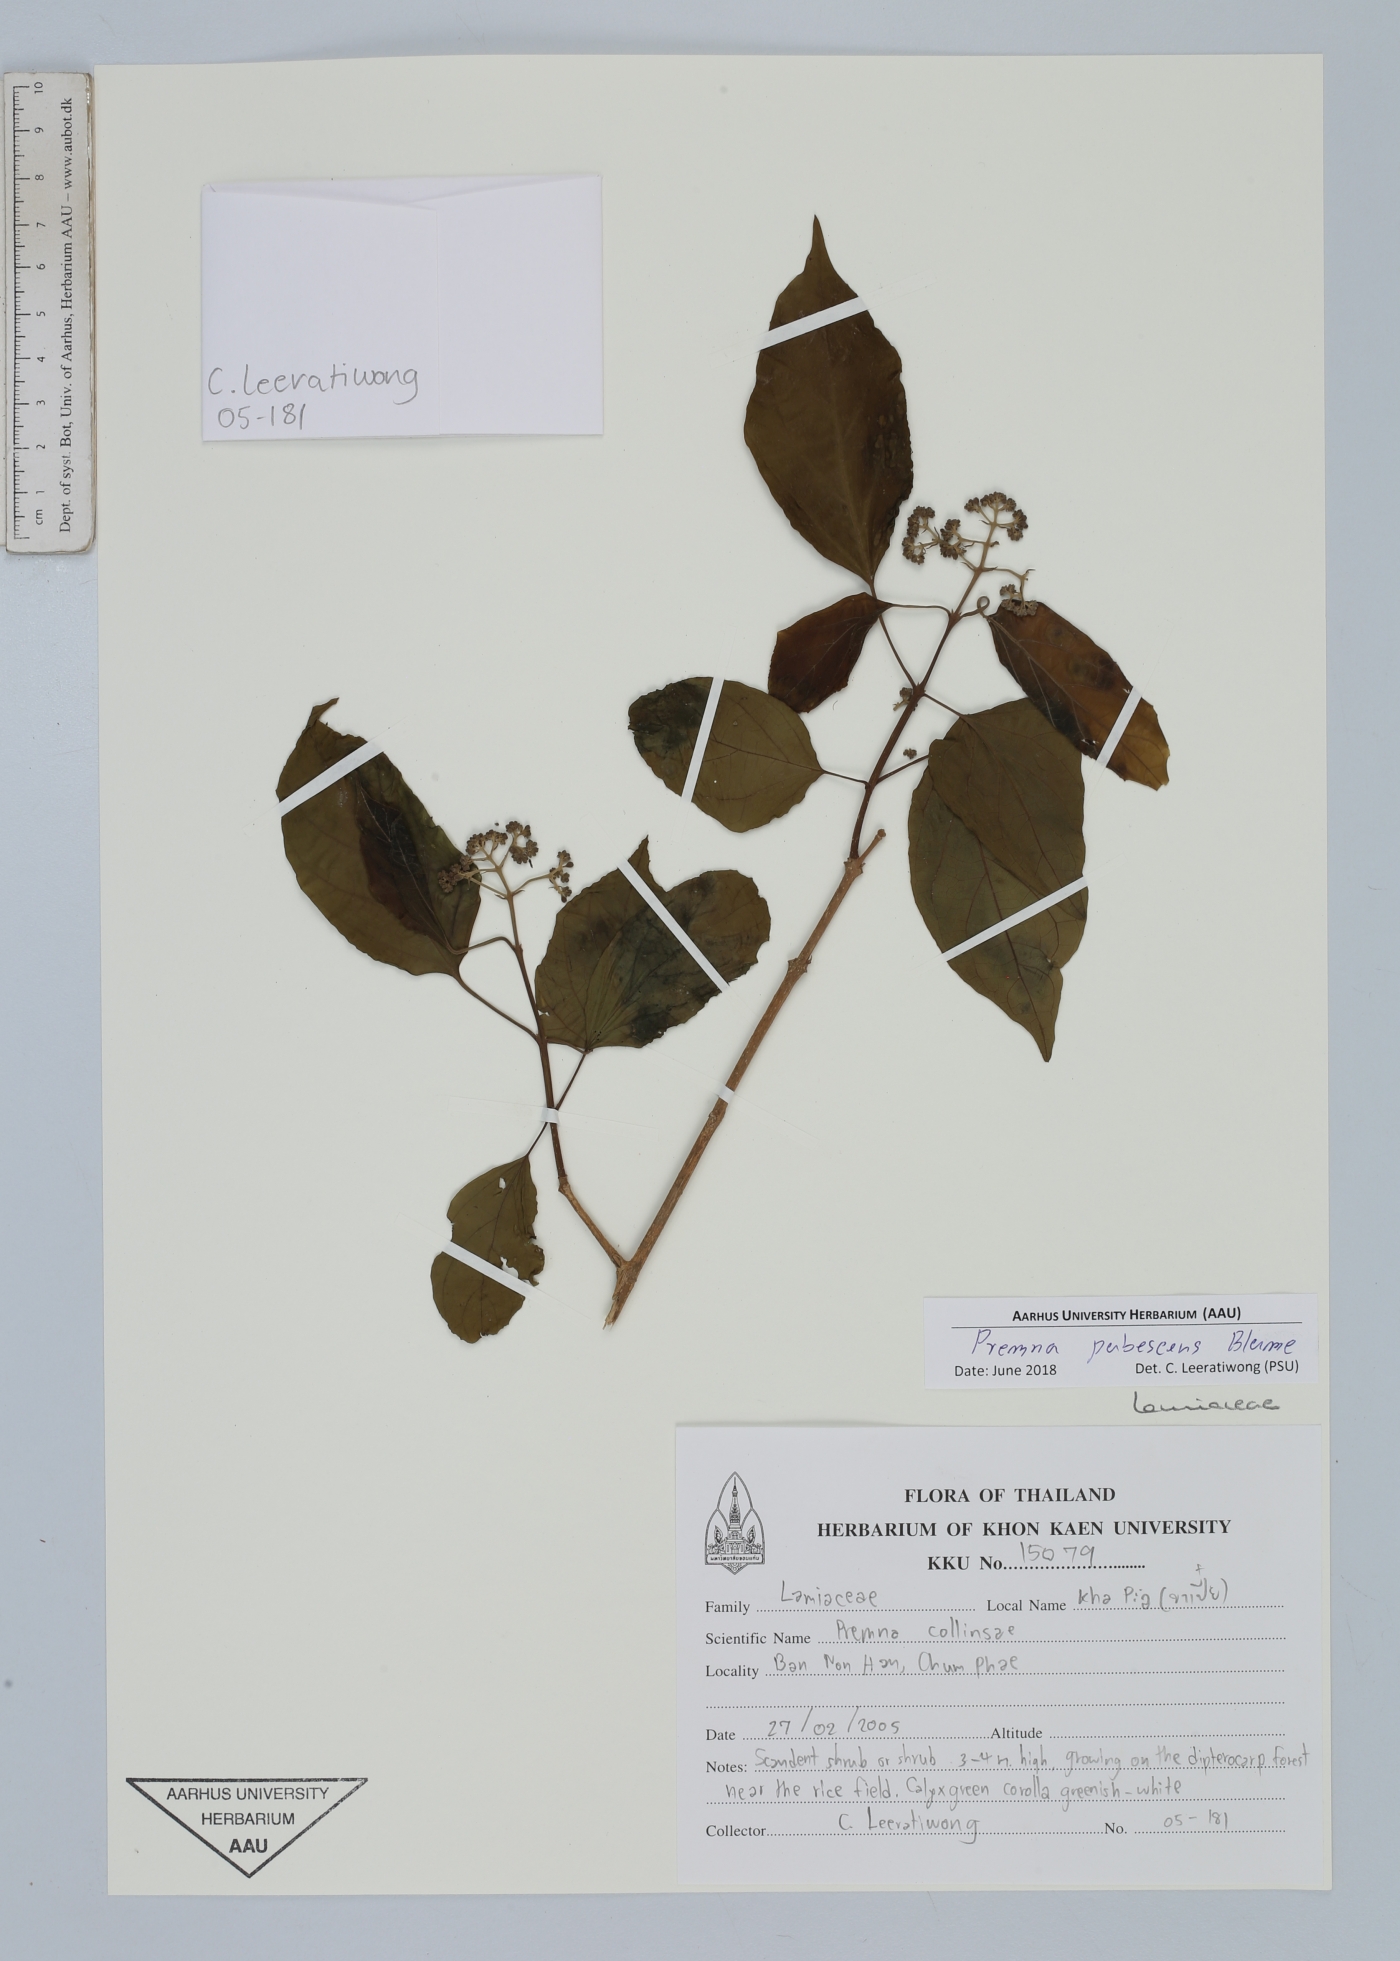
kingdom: Plantae
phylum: Tracheophyta
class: Magnoliopsida
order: Lamiales
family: Lamiaceae
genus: Premna
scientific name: Premna pubescens
